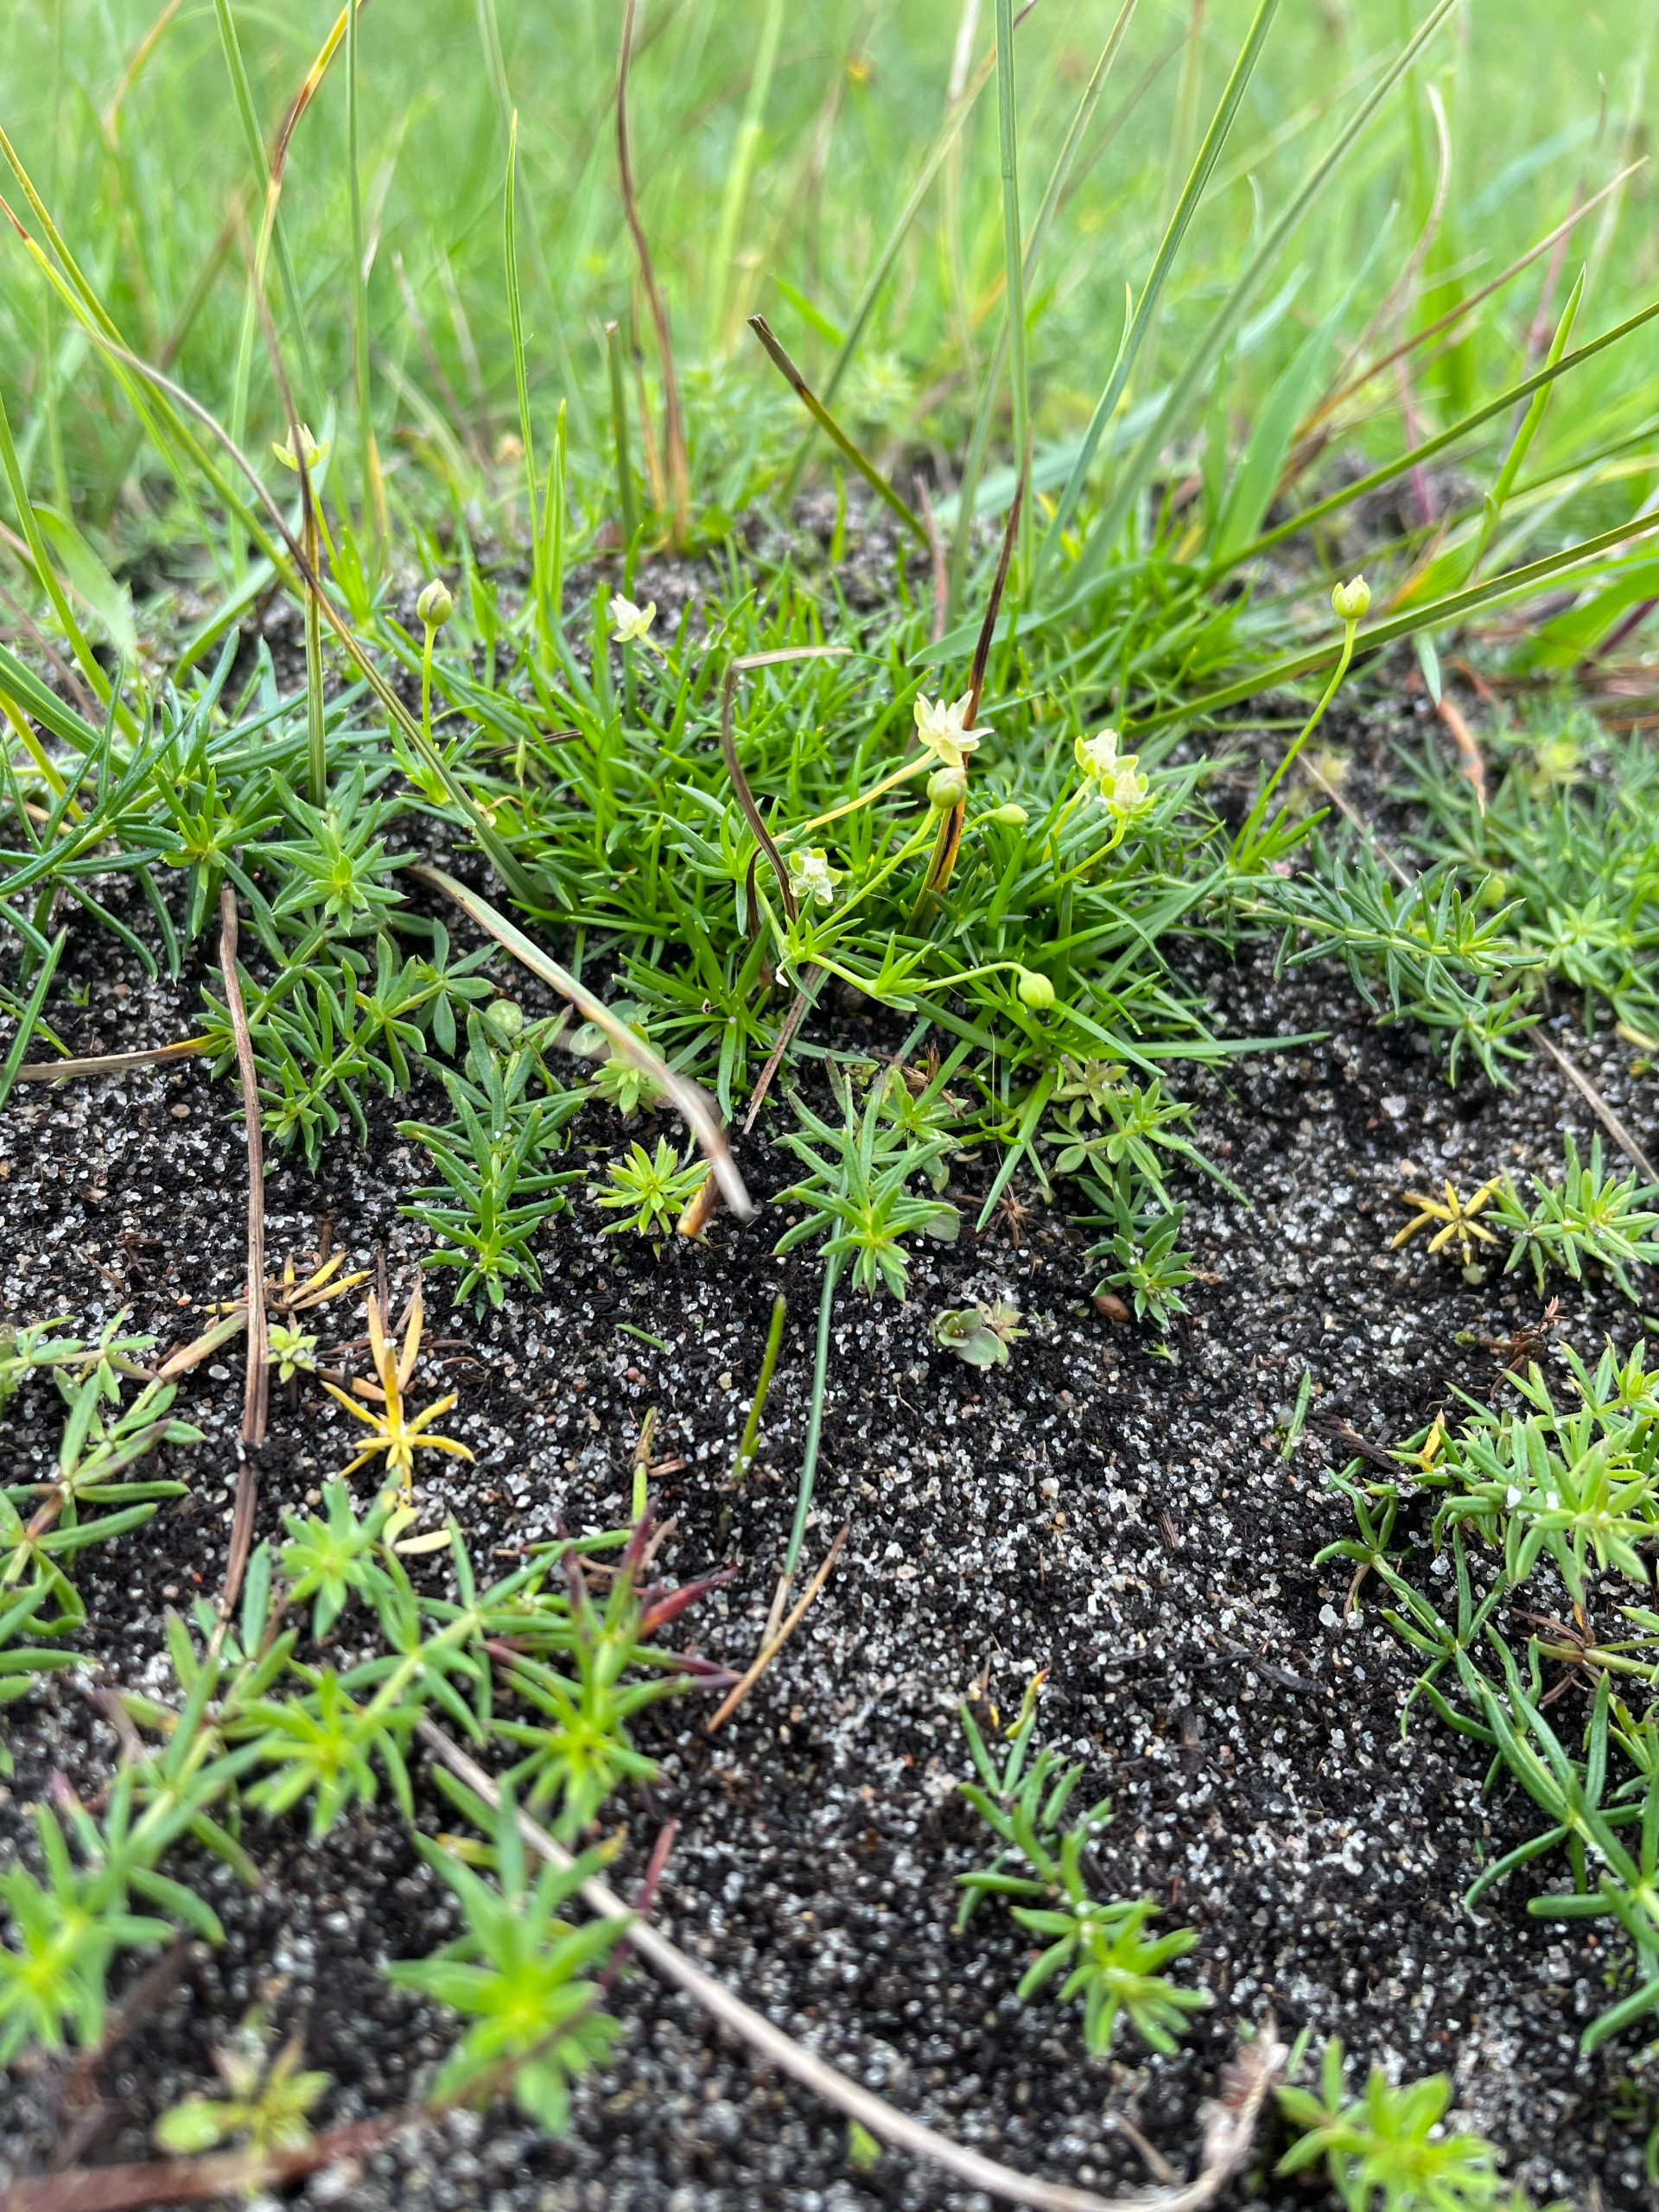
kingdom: Plantae
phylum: Tracheophyta
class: Magnoliopsida
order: Caryophyllales
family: Caryophyllaceae
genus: Sagina
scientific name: Sagina procumbens
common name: Almindelig firling
